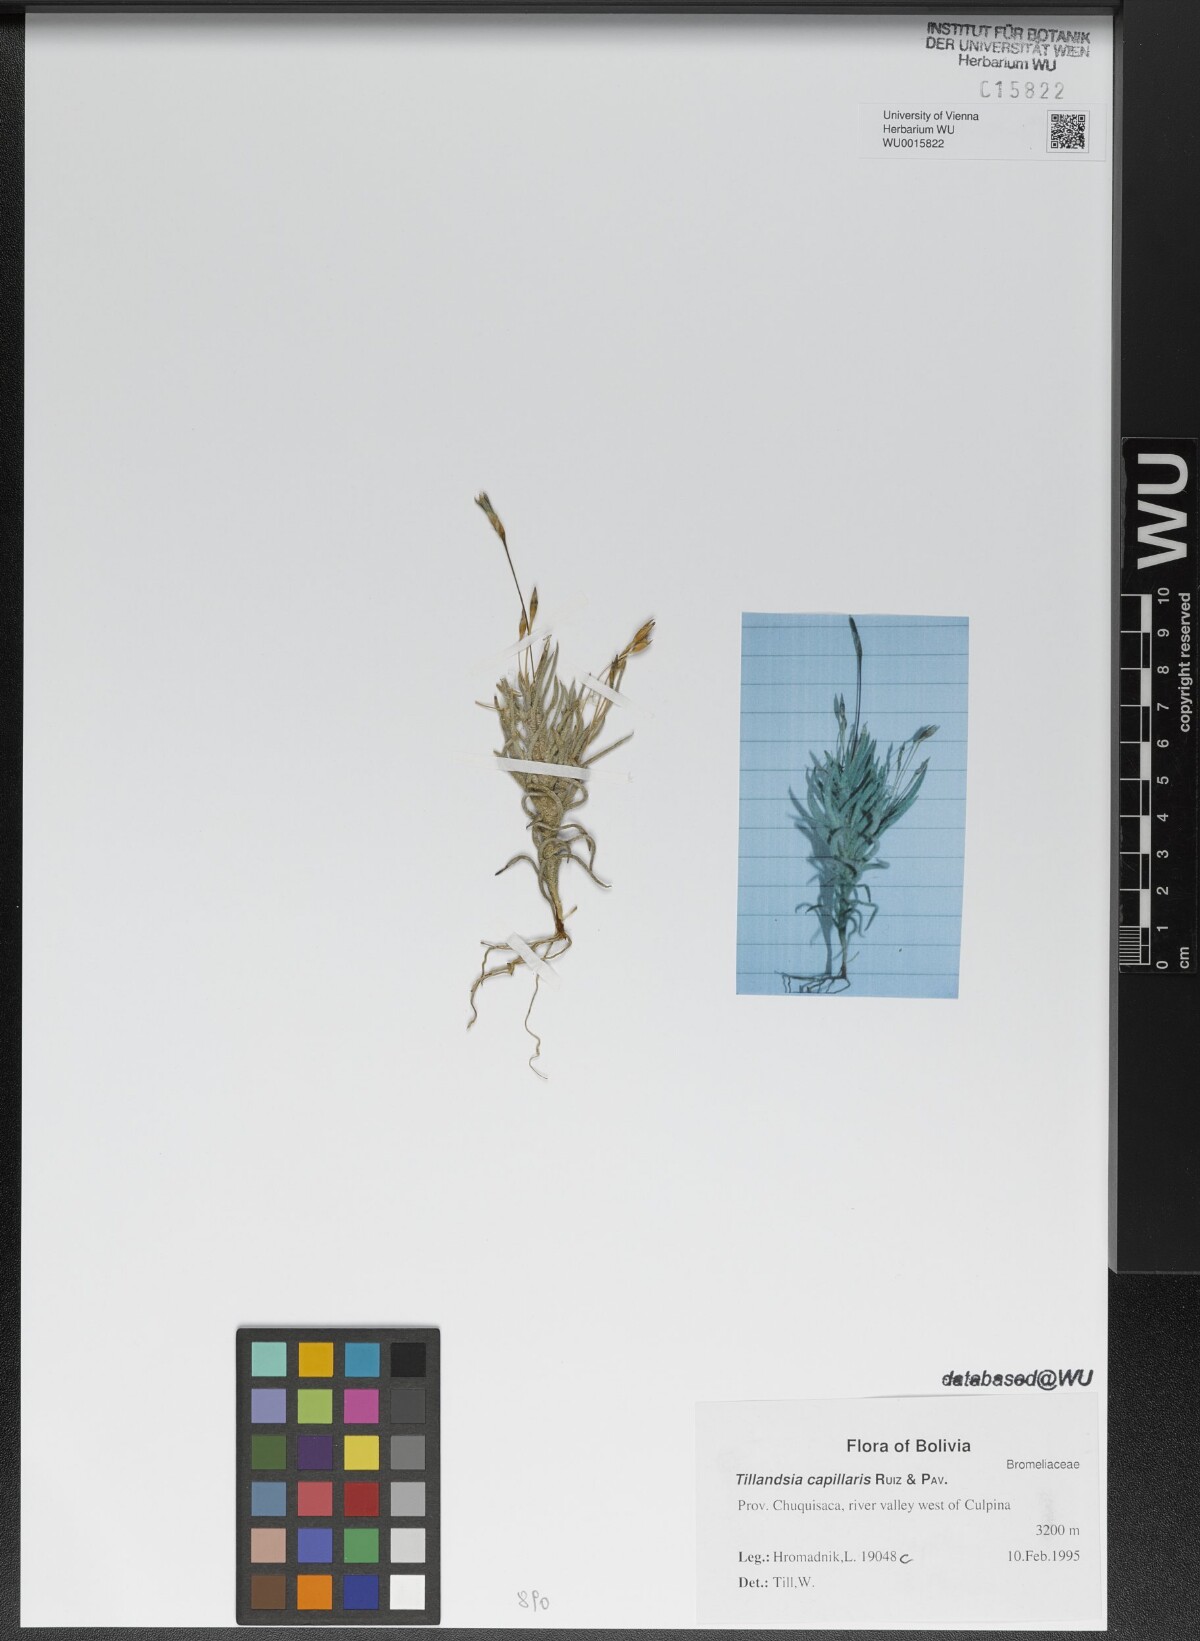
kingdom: Plantae
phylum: Tracheophyta
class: Liliopsida
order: Poales
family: Bromeliaceae
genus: Tillandsia
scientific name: Tillandsia capillaris
